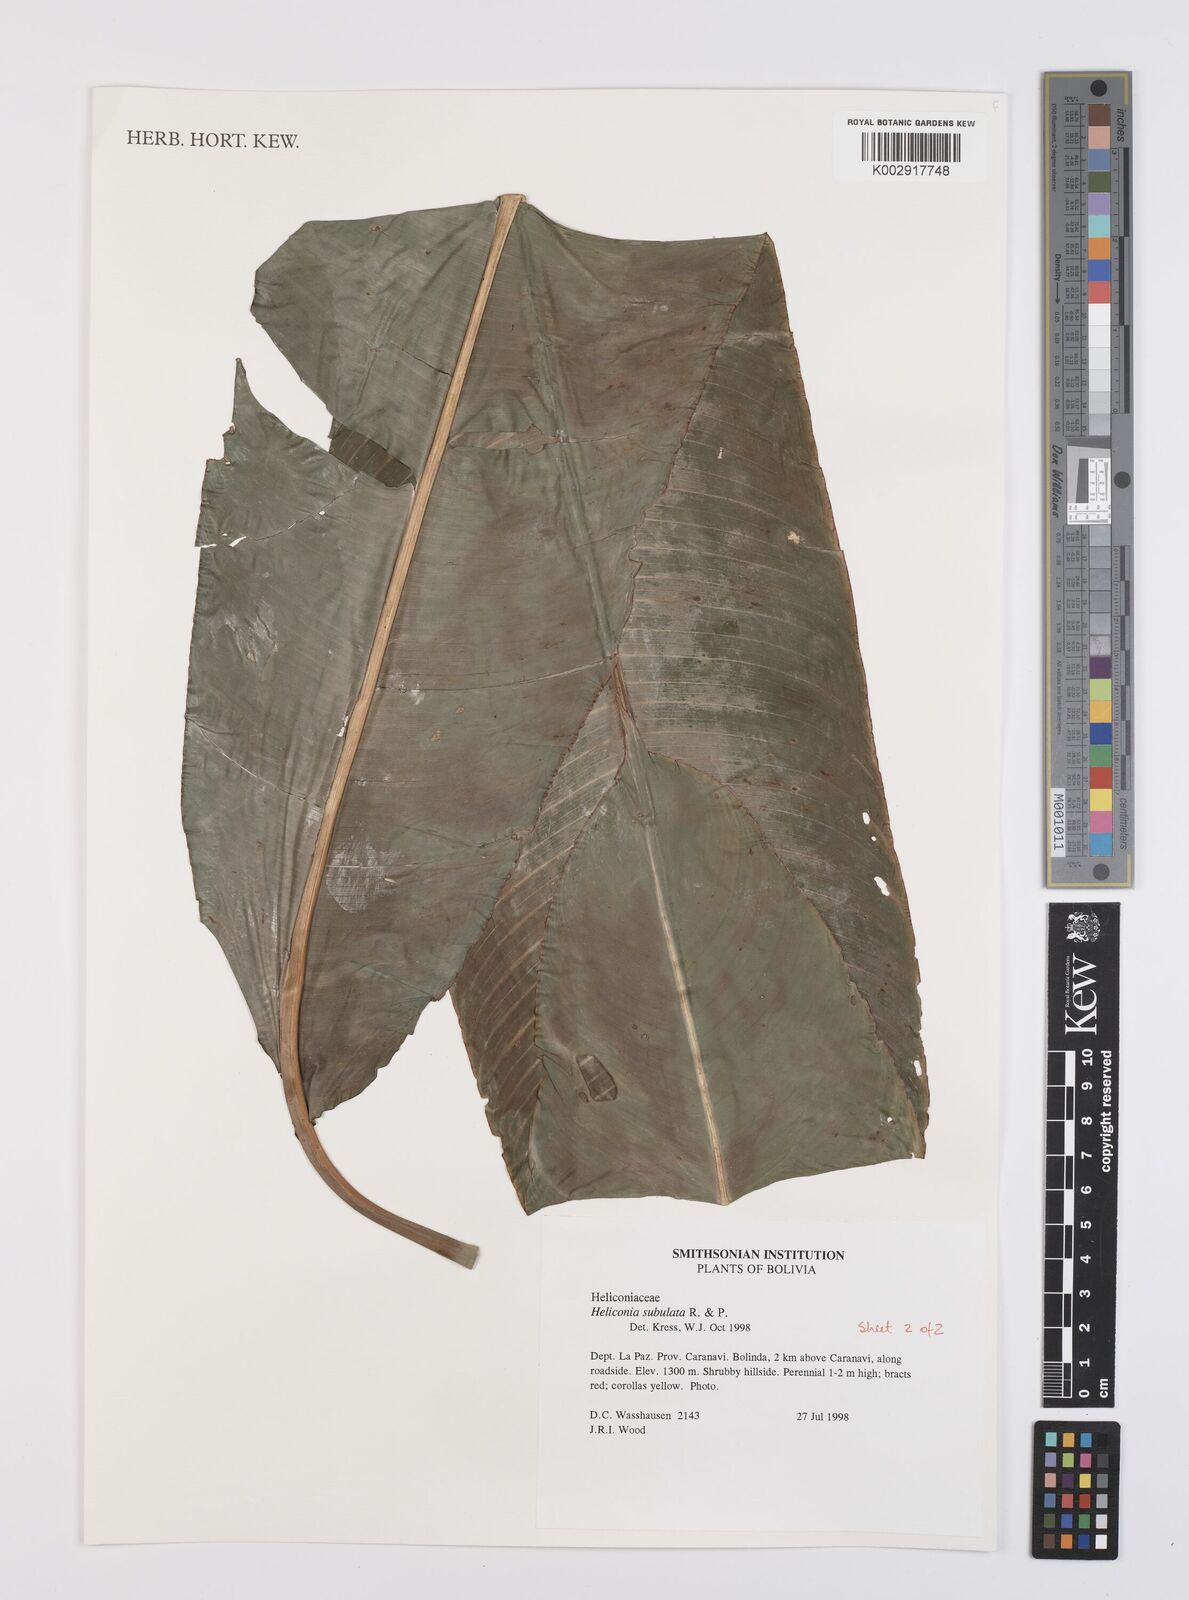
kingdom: Plantae
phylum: Tracheophyta
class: Liliopsida
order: Zingiberales
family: Heliconiaceae
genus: Heliconia
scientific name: Heliconia subulata
